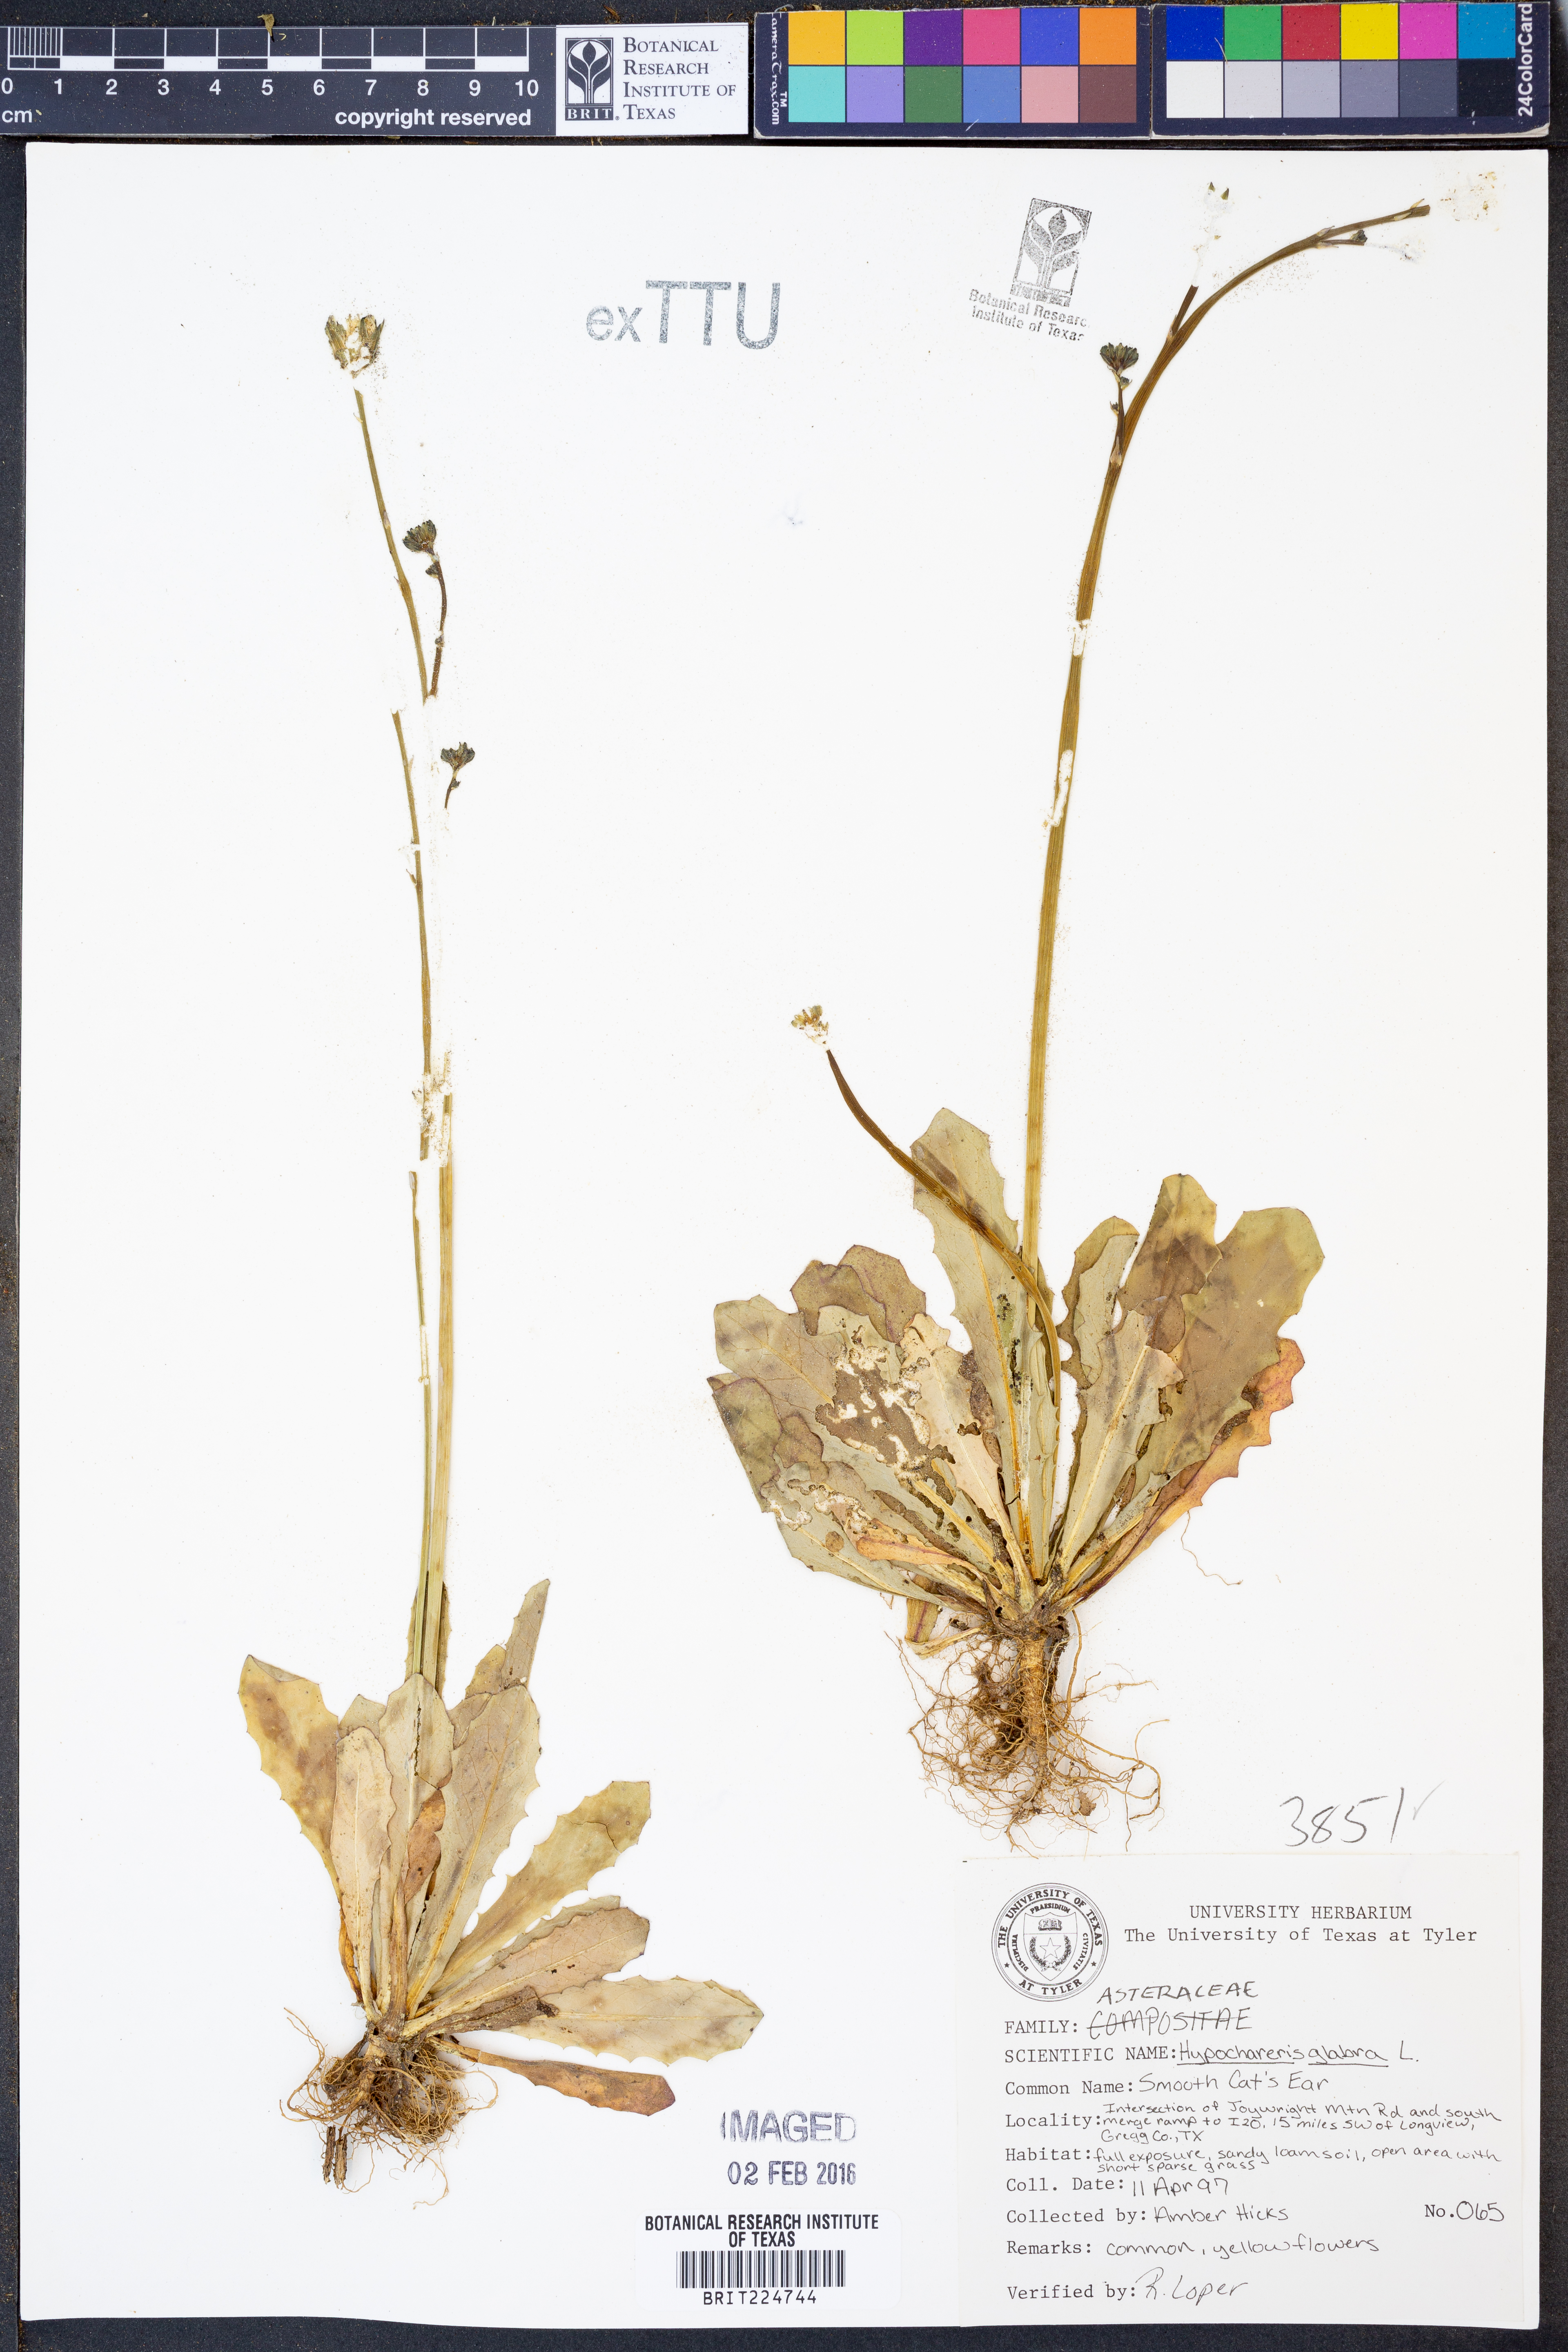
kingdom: Plantae
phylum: Tracheophyta
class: Magnoliopsida
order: Asterales
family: Asteraceae
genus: Hypochaeris
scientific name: Hypochaeris glabra
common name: Smooth catsear
